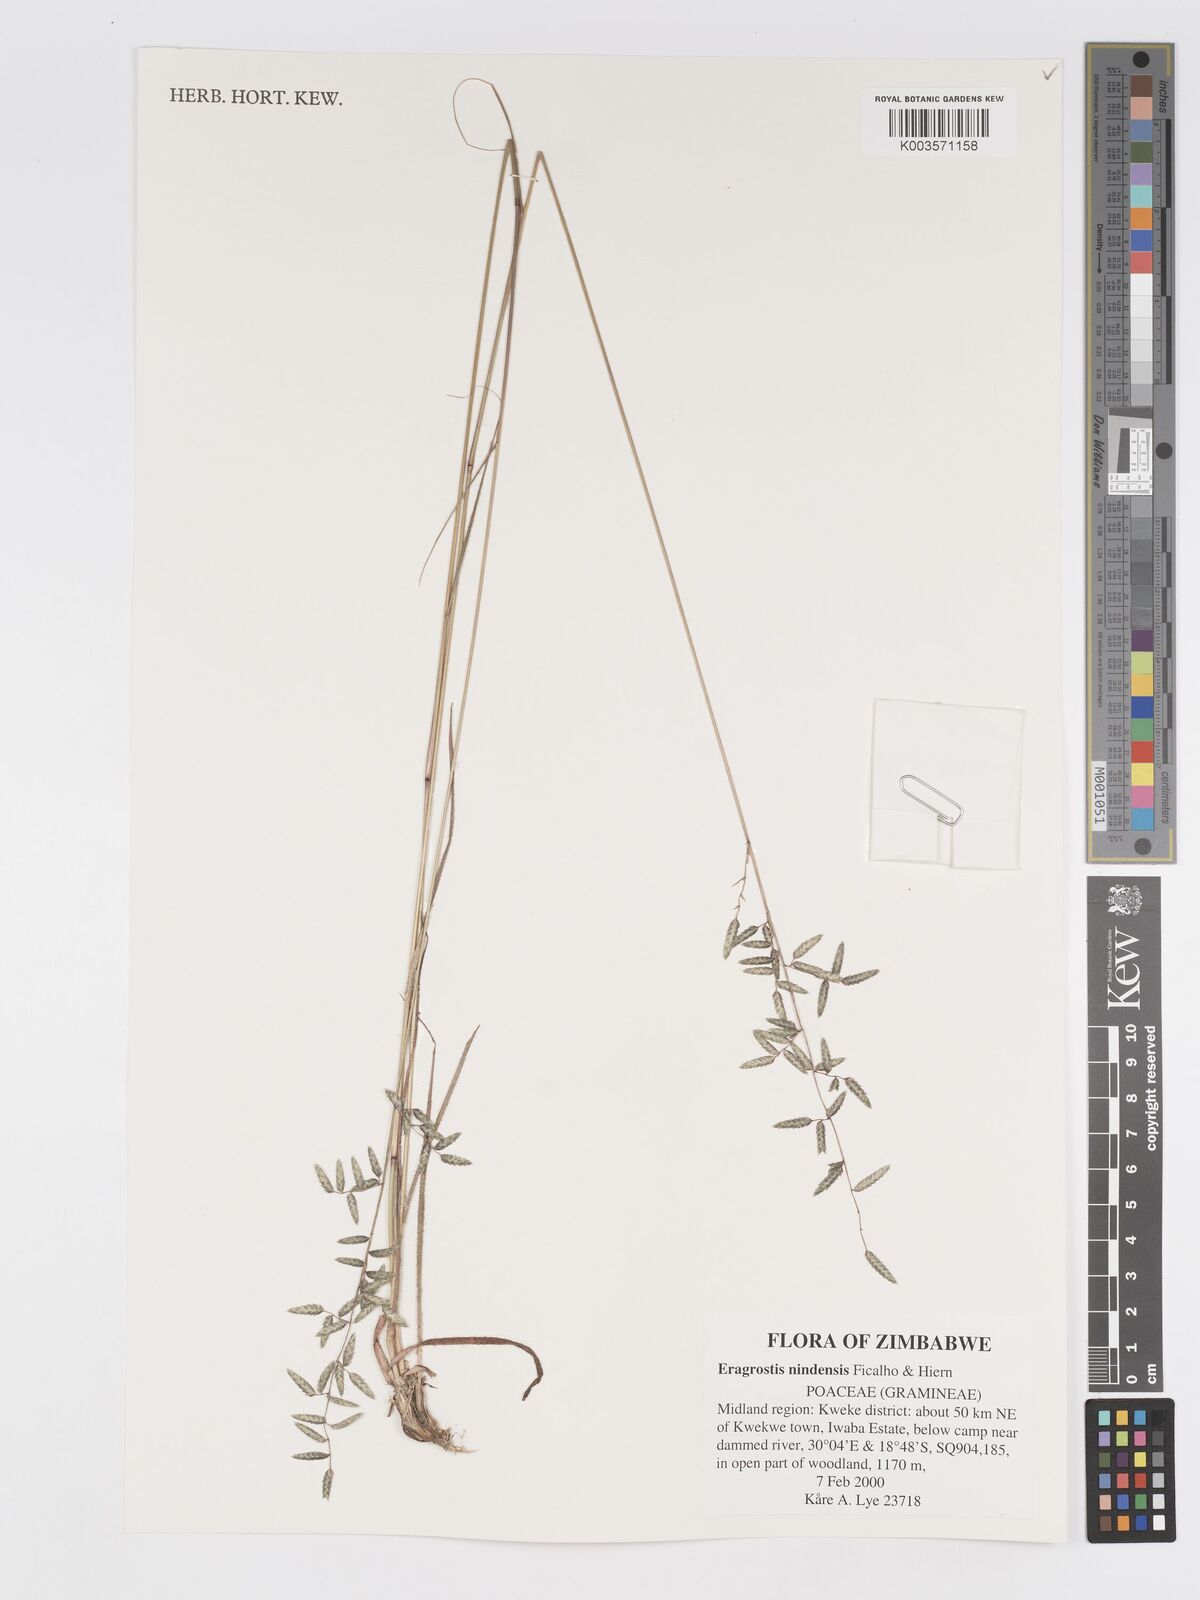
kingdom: Plantae
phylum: Tracheophyta
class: Liliopsida
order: Poales
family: Poaceae
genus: Eragrostis
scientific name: Eragrostis nindensis
